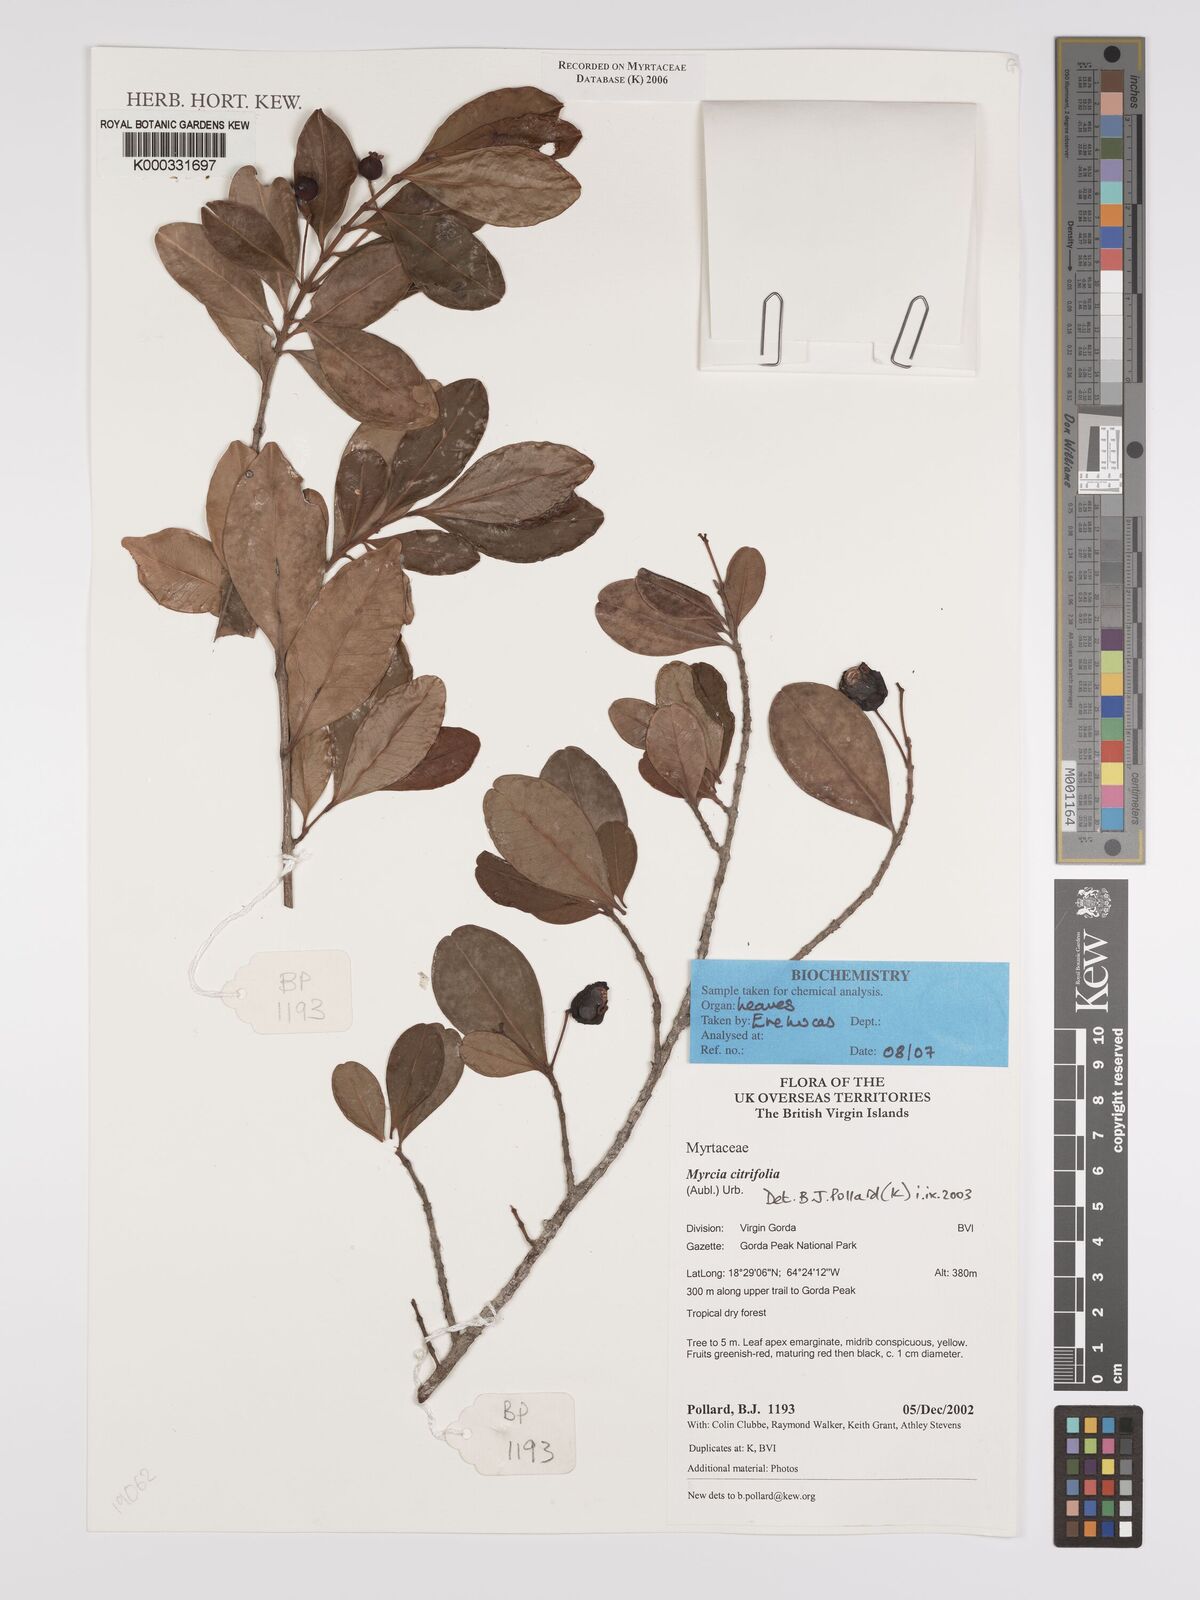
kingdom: Plantae
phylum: Tracheophyta
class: Magnoliopsida
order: Myrtales
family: Myrtaceae
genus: Myrcia
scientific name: Myrcia guianensis
